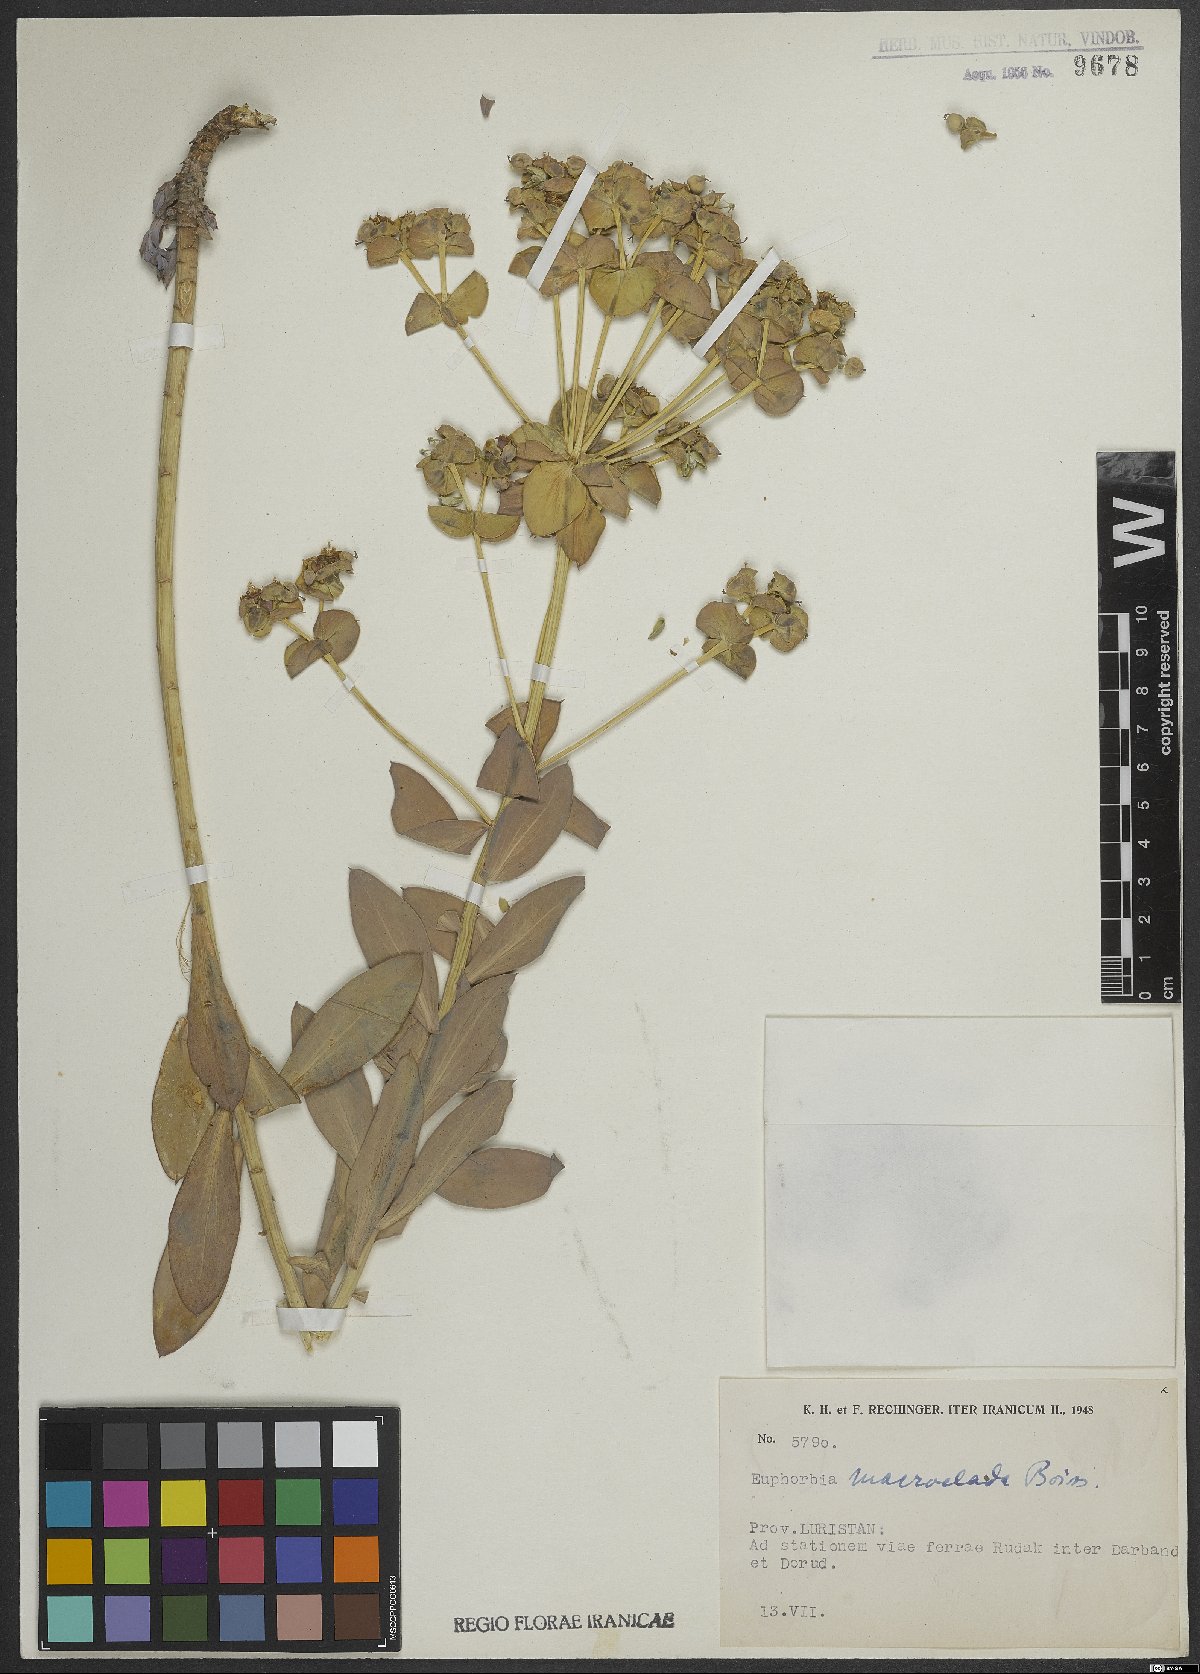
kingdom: Plantae
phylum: Tracheophyta
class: Magnoliopsida
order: Malpighiales
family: Euphorbiaceae
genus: Euphorbia
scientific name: Euphorbia macroclada
